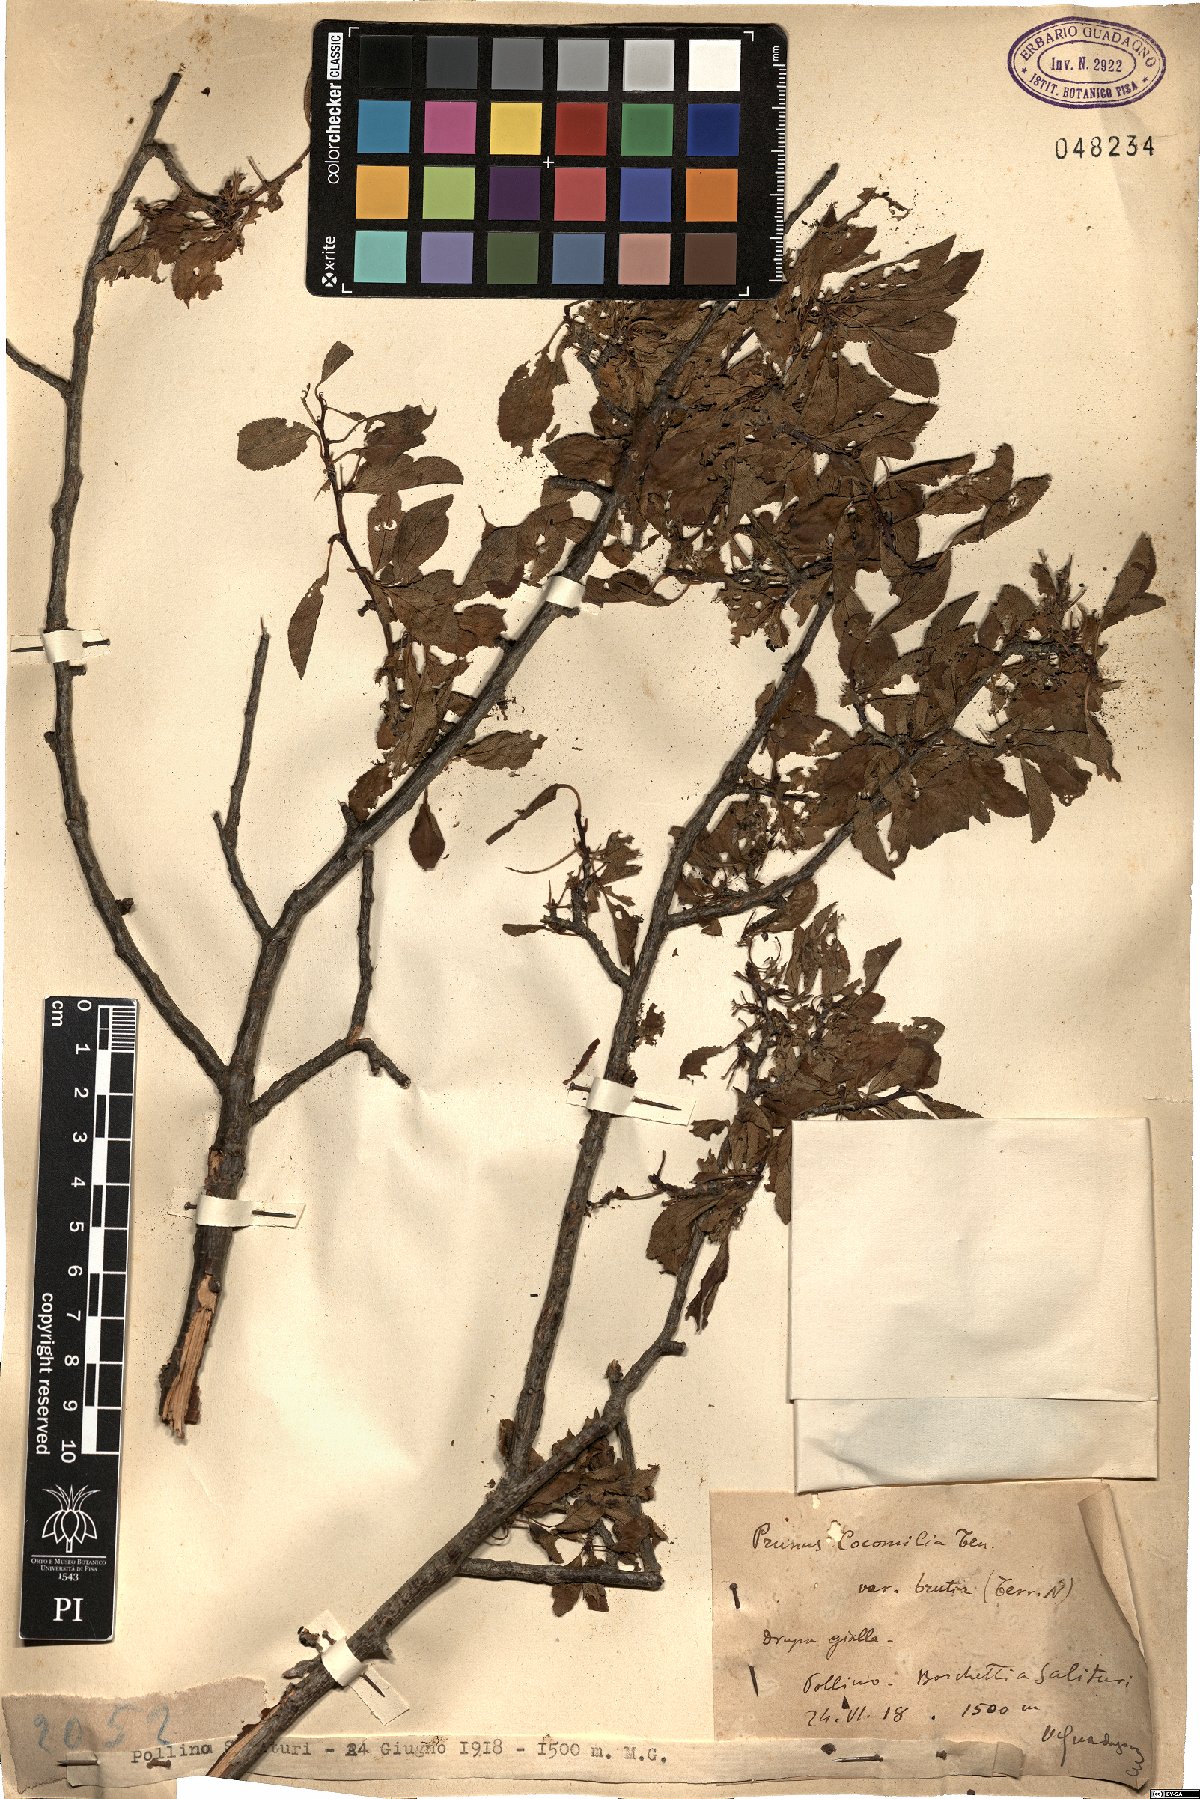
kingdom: Plantae
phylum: Tracheophyta
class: Magnoliopsida
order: Rosales
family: Rosaceae
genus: Prunus
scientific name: Prunus cocomilia
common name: Italian plum
